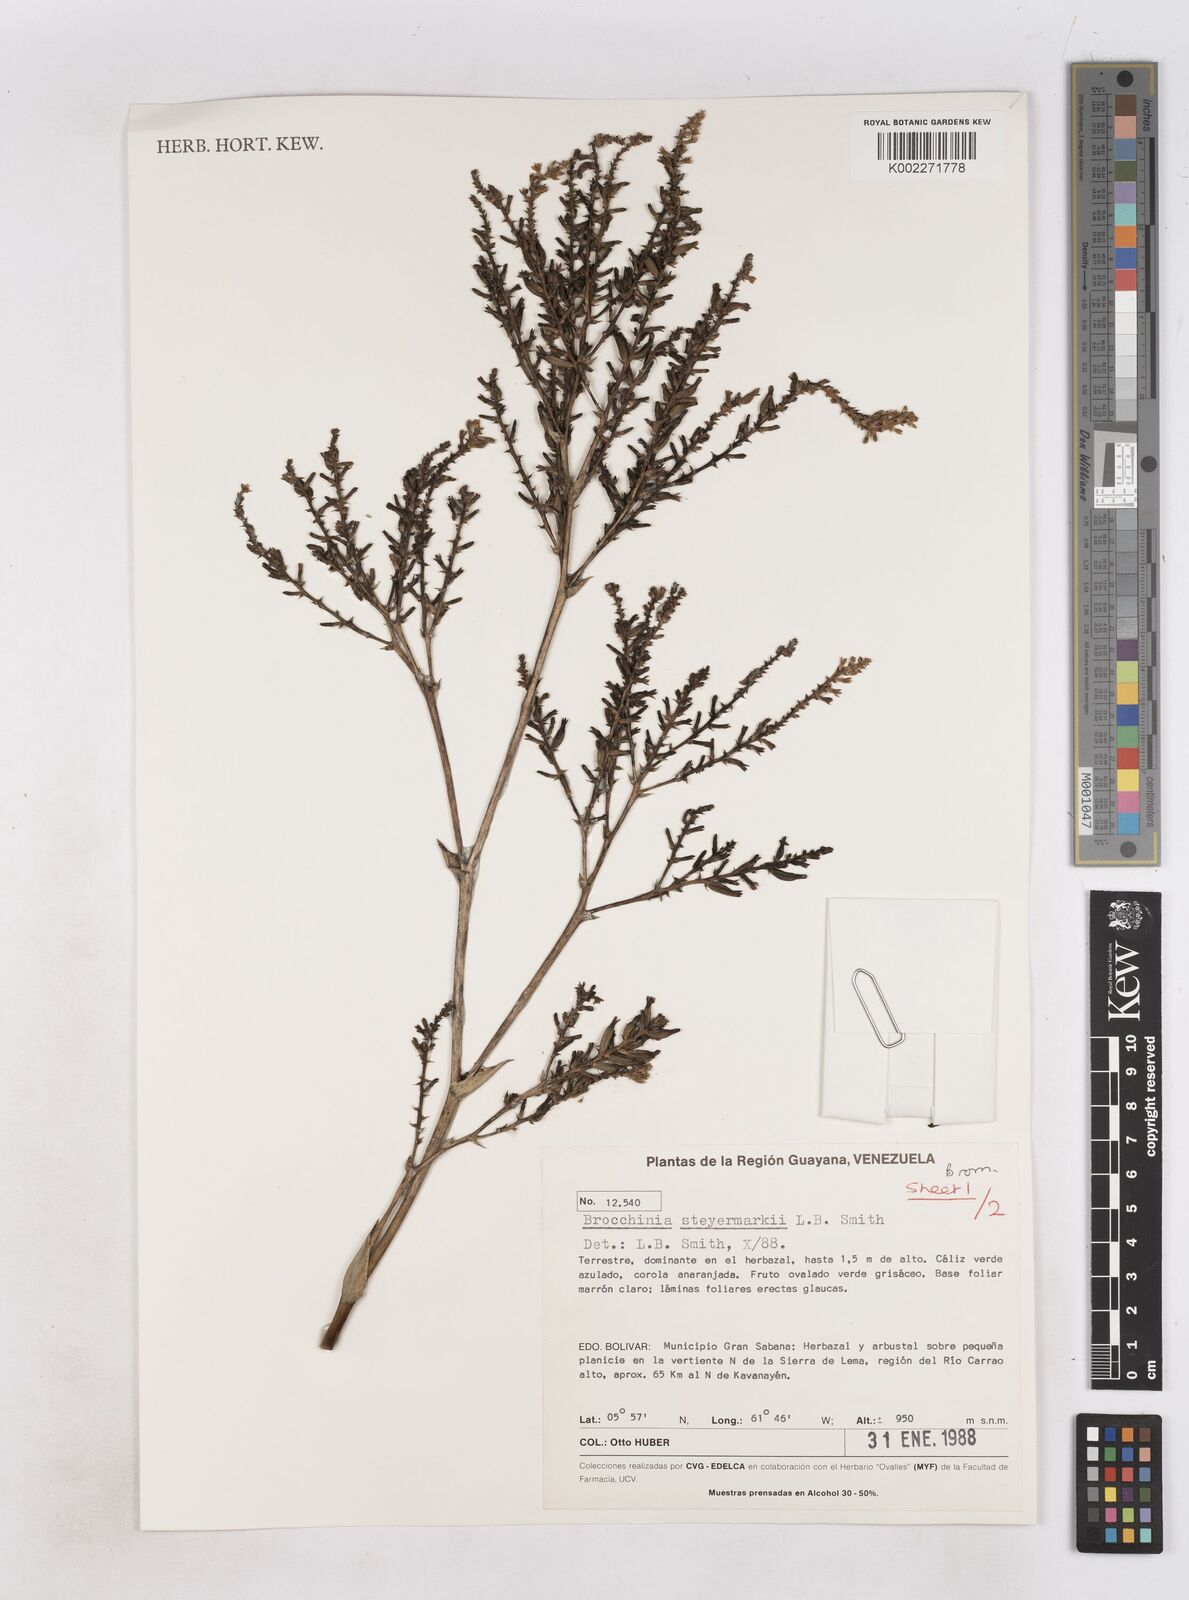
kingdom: Plantae
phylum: Tracheophyta
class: Liliopsida
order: Poales
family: Bromeliaceae
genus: Brocchinia
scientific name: Brocchinia steyermarkii
